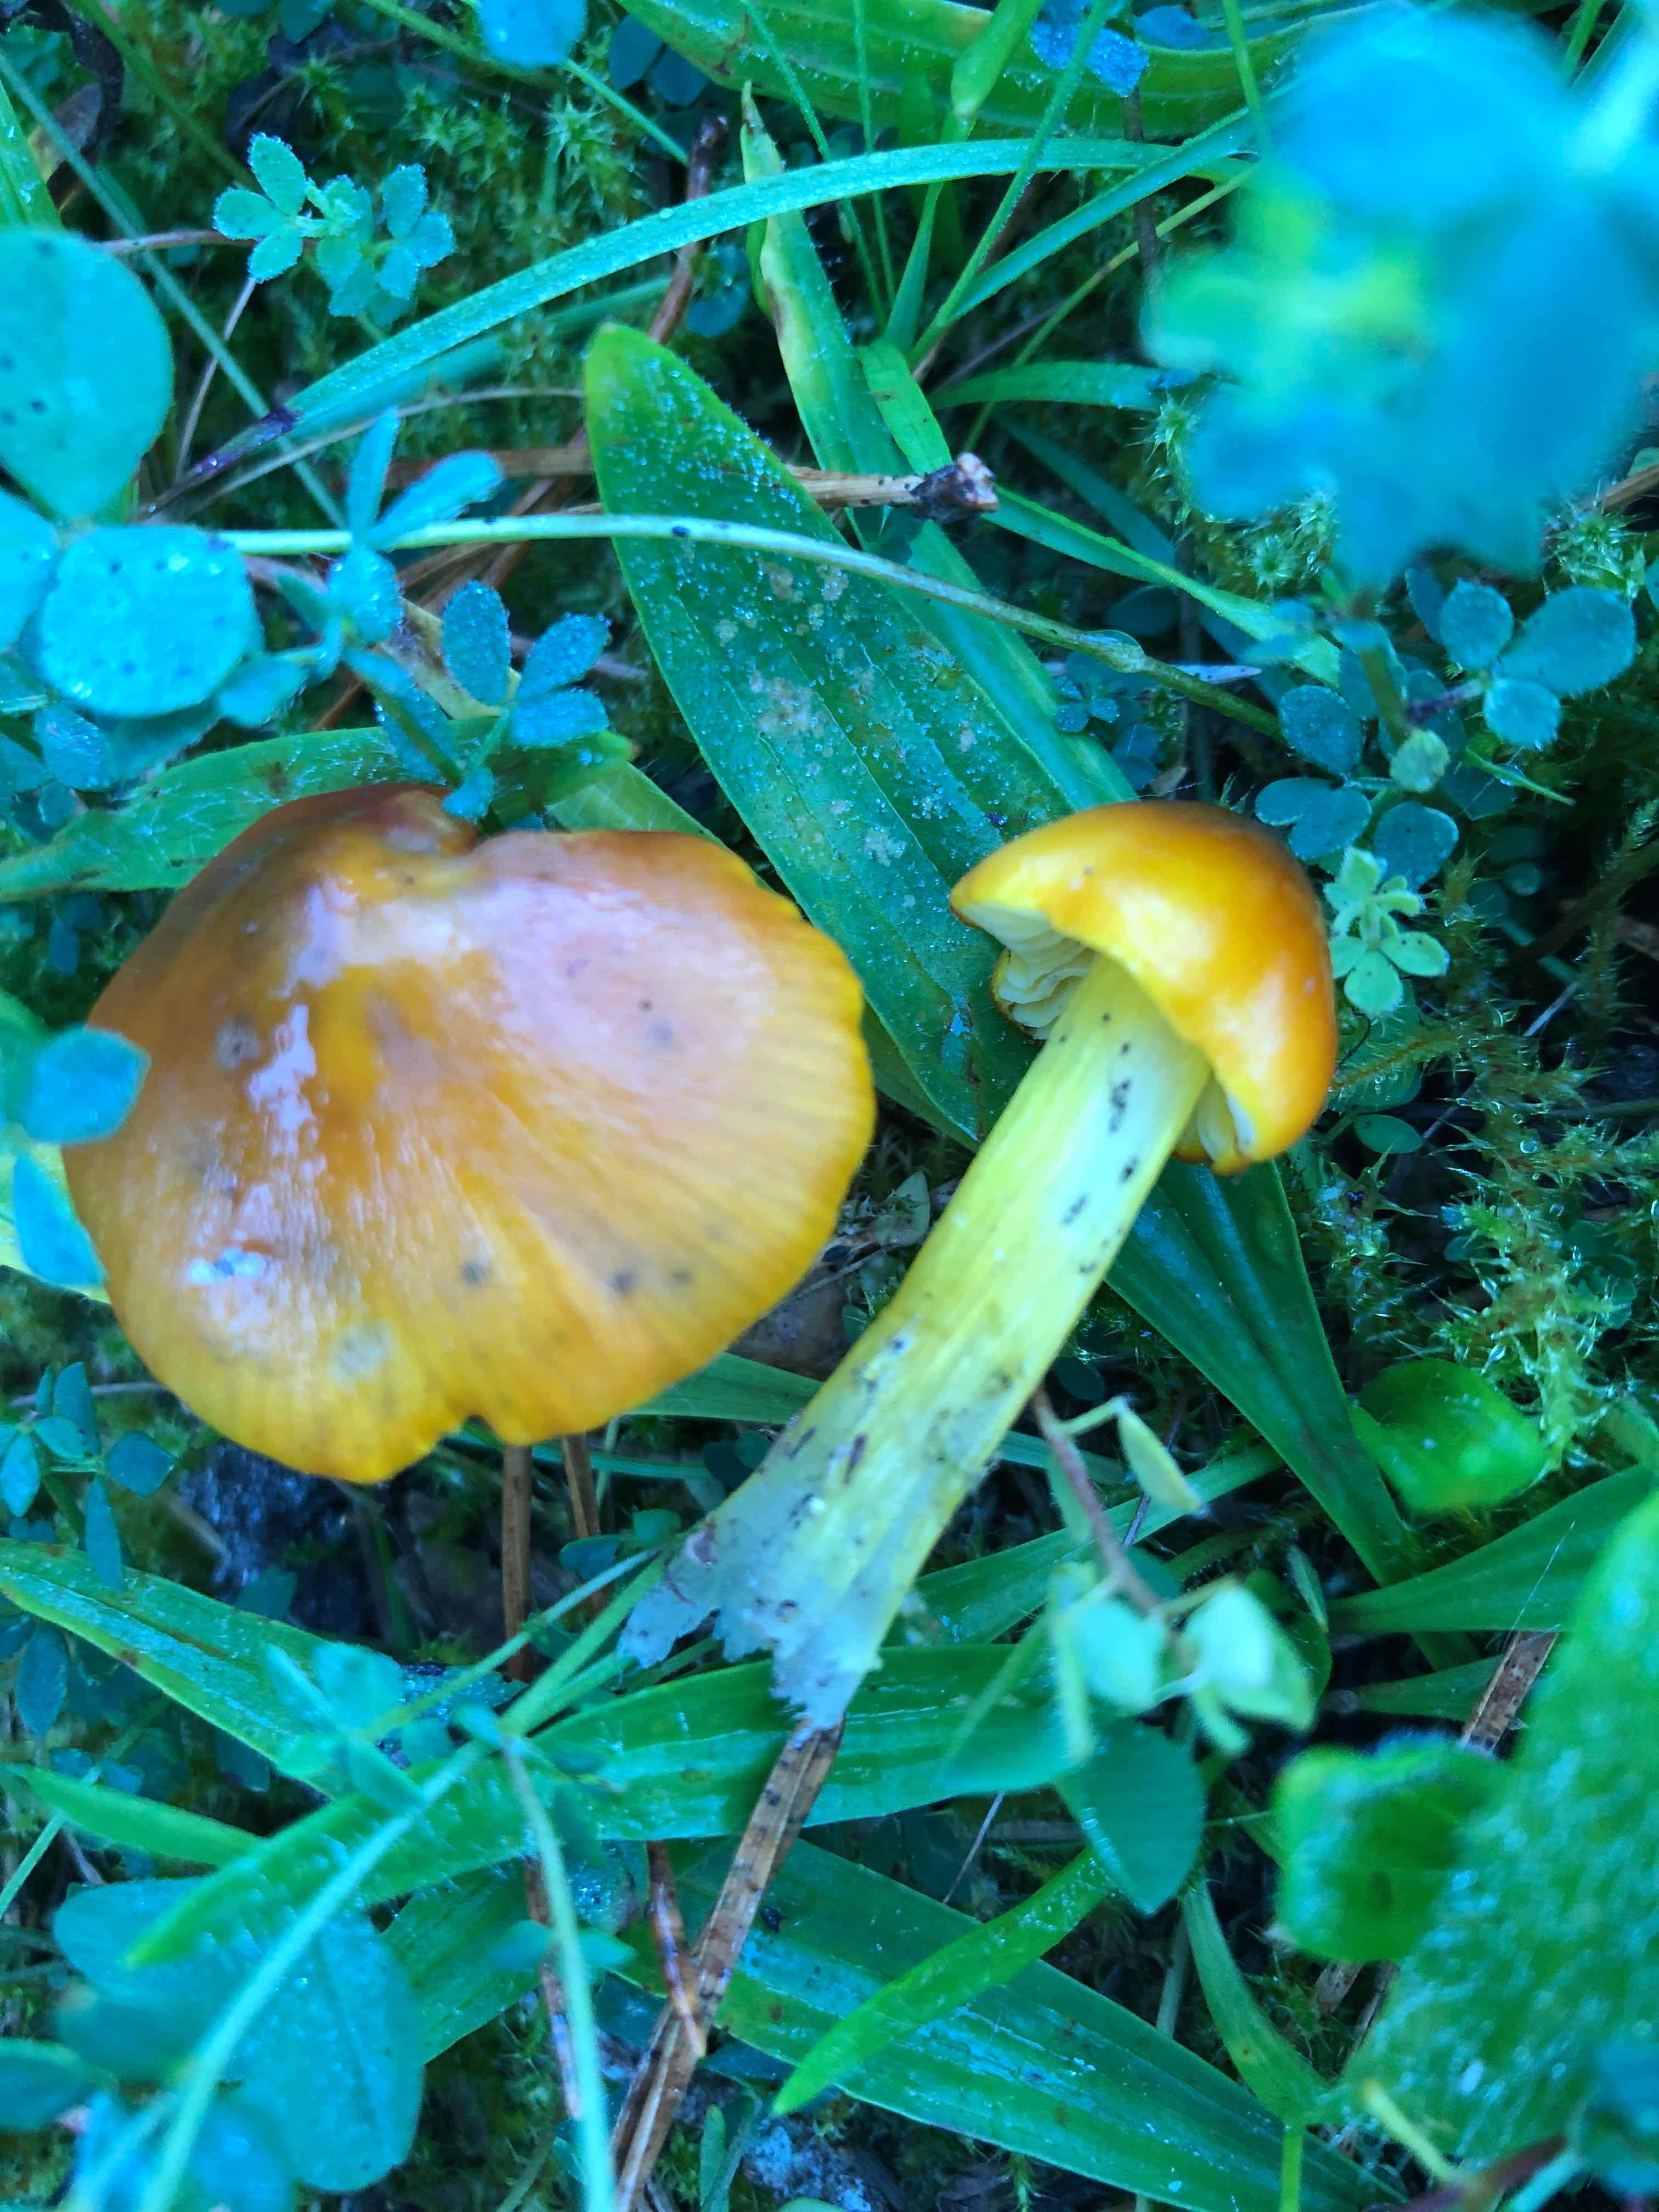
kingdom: Fungi
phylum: Basidiomycota
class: Agaricomycetes
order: Agaricales
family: Hygrophoraceae
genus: Hygrocybe
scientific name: Hygrocybe conica
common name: kegle-vokshat
